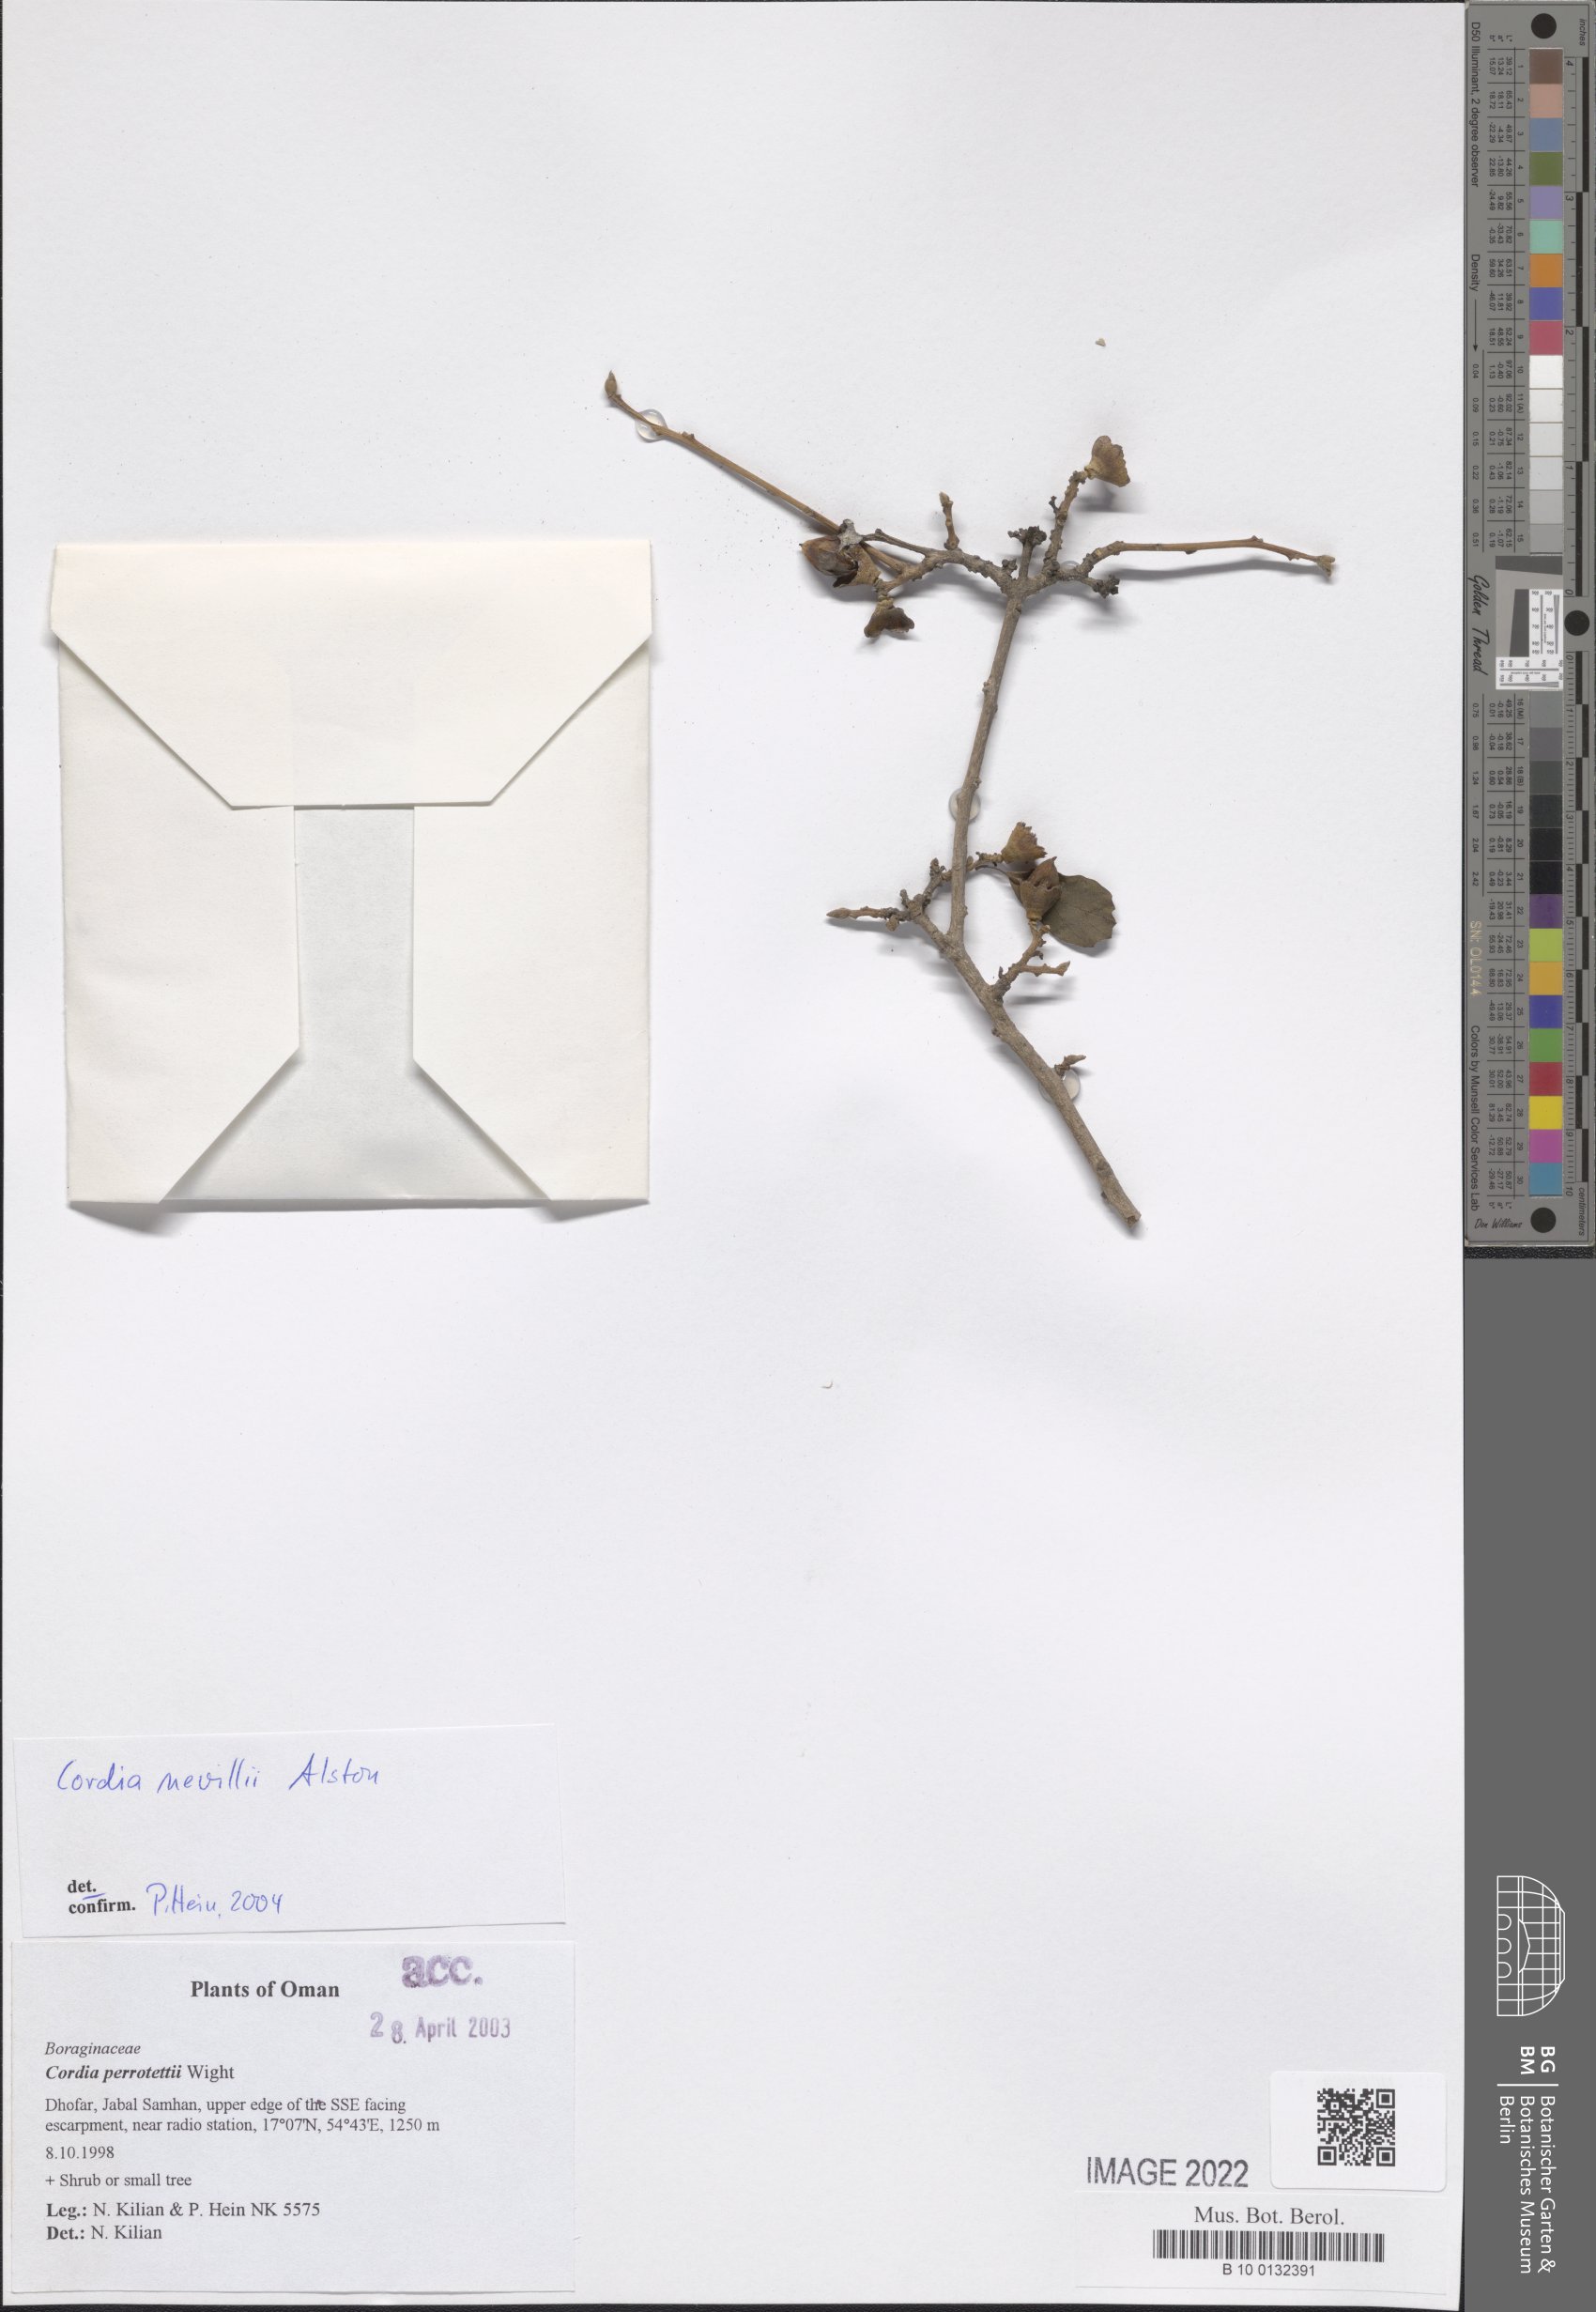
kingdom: Plantae
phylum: Tracheophyta
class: Magnoliopsida
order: Boraginales
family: Cordiaceae
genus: Cordia
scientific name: Cordia quercifolia
